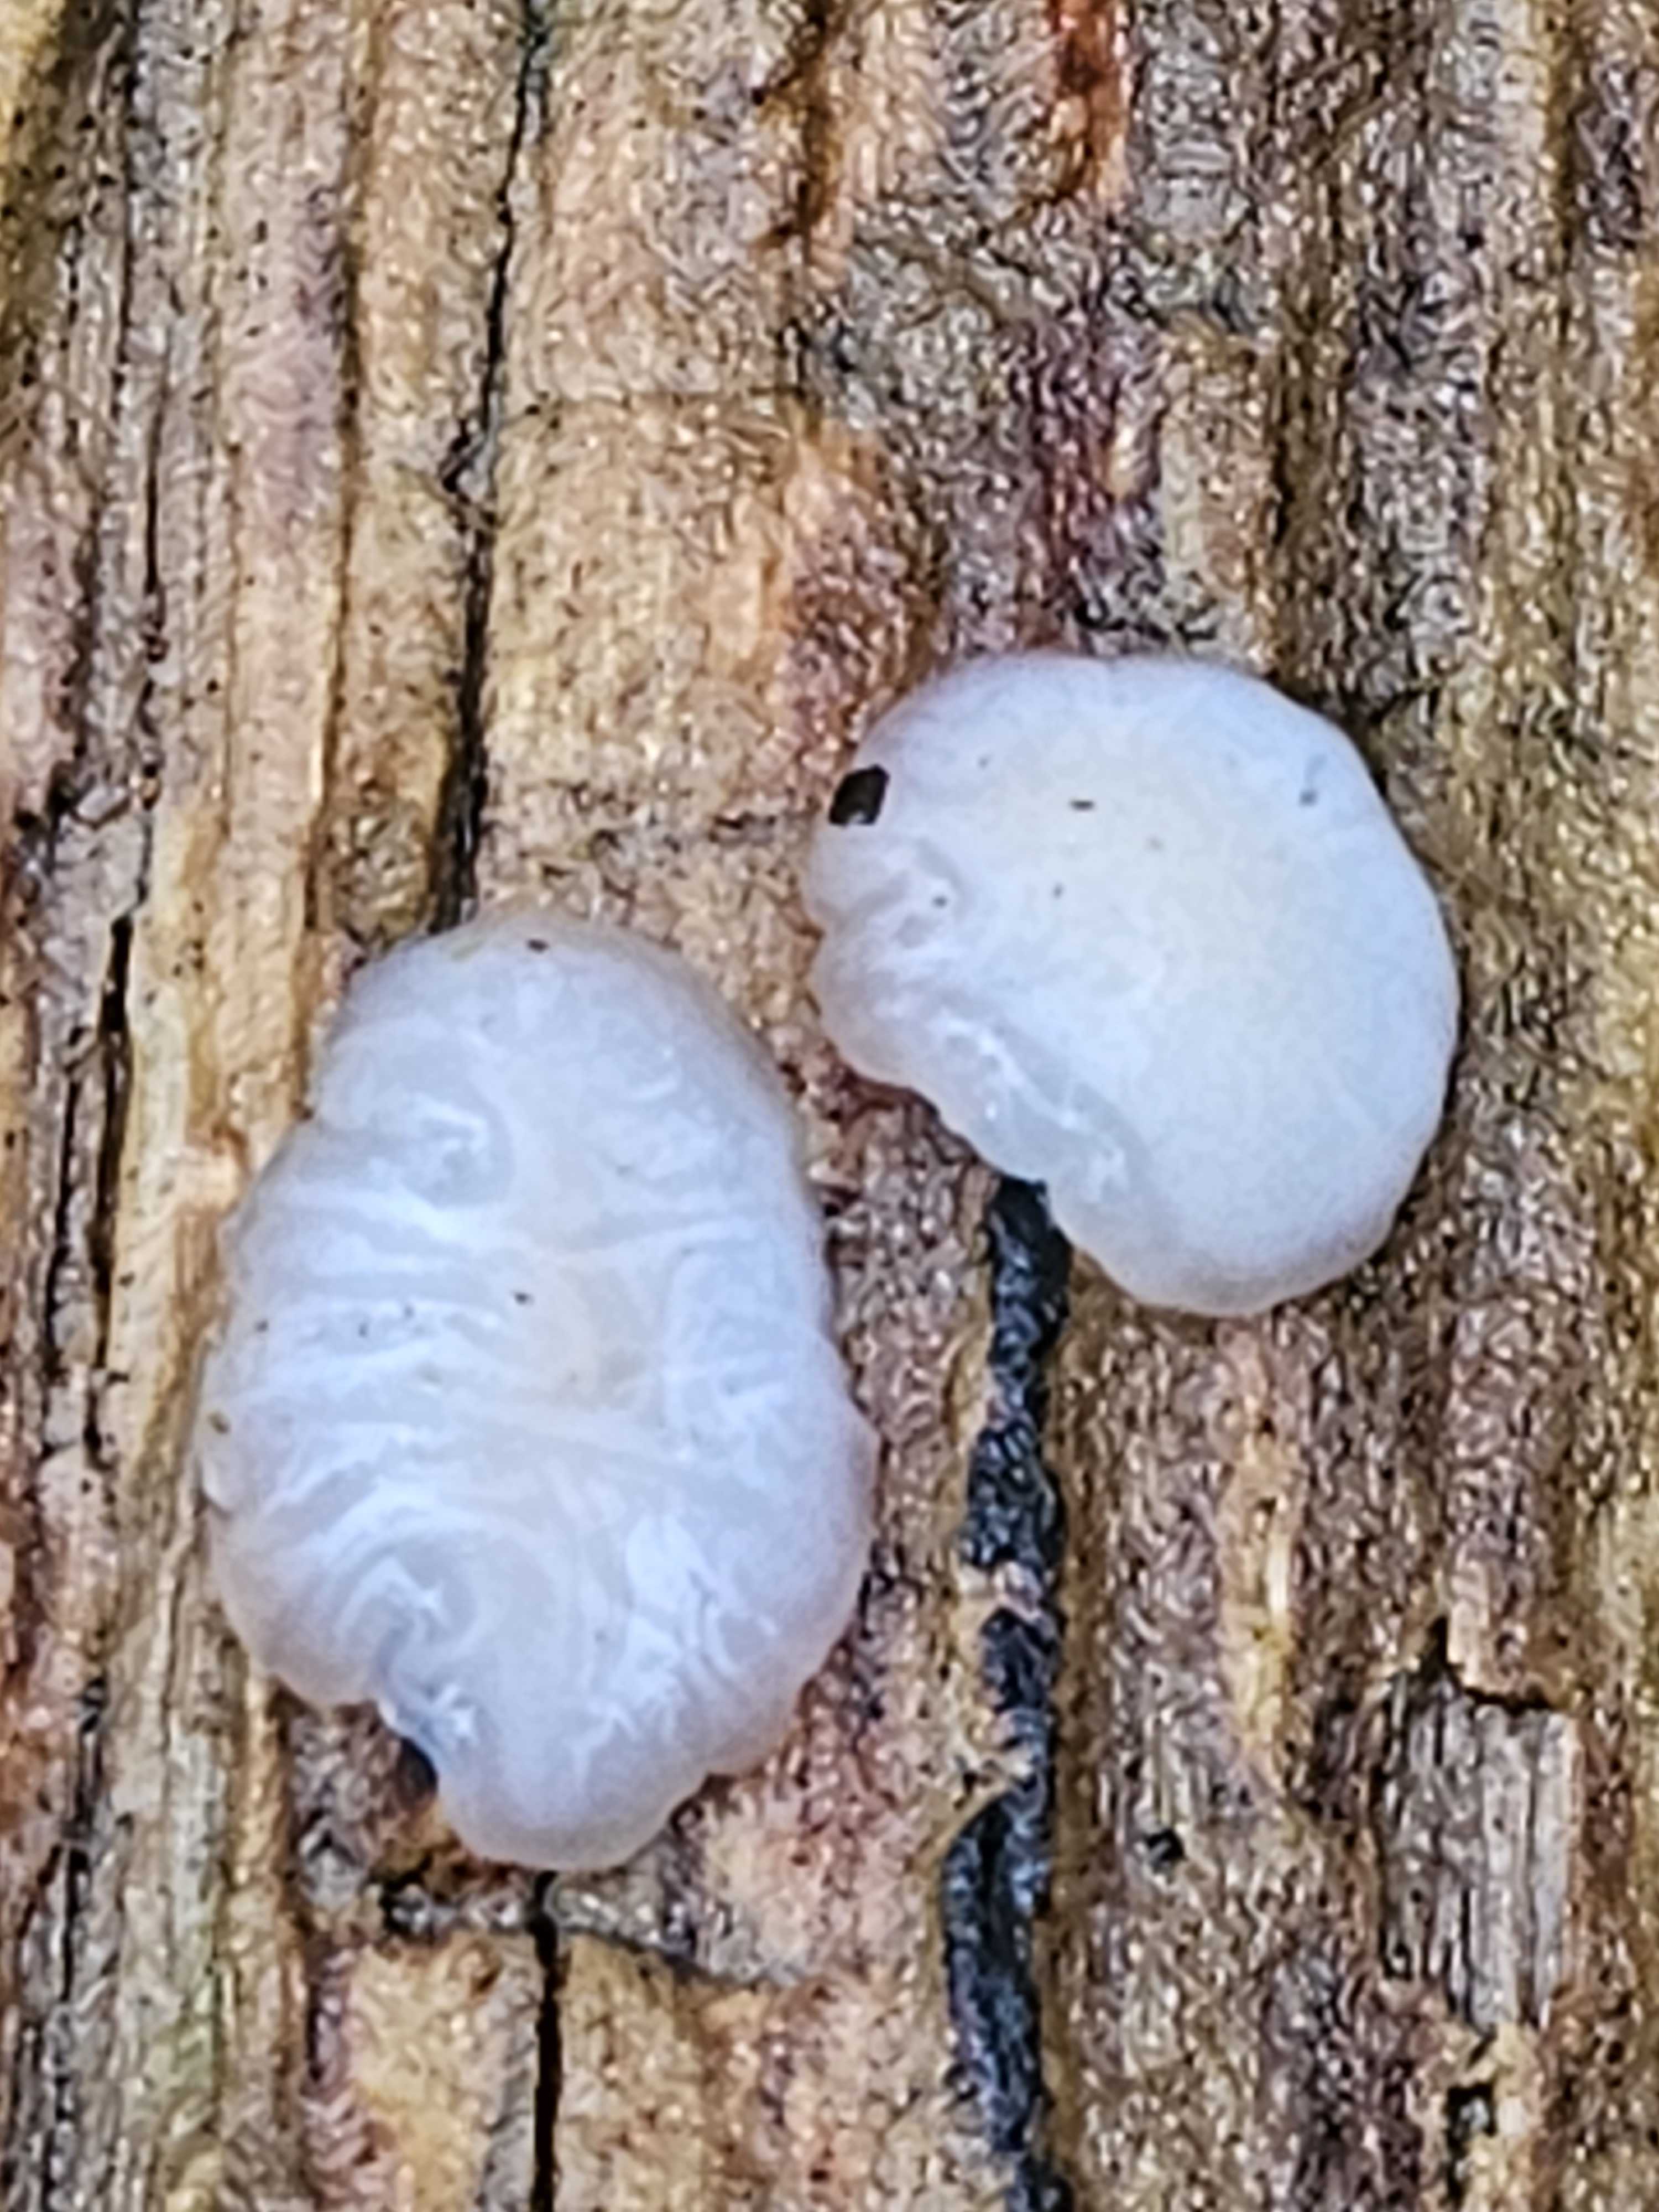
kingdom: Fungi
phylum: Basidiomycota
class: Agaricomycetes
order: Auriculariales
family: Auriculariaceae
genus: Exidia
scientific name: Exidia thuretiana
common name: hvidlig bævretop
